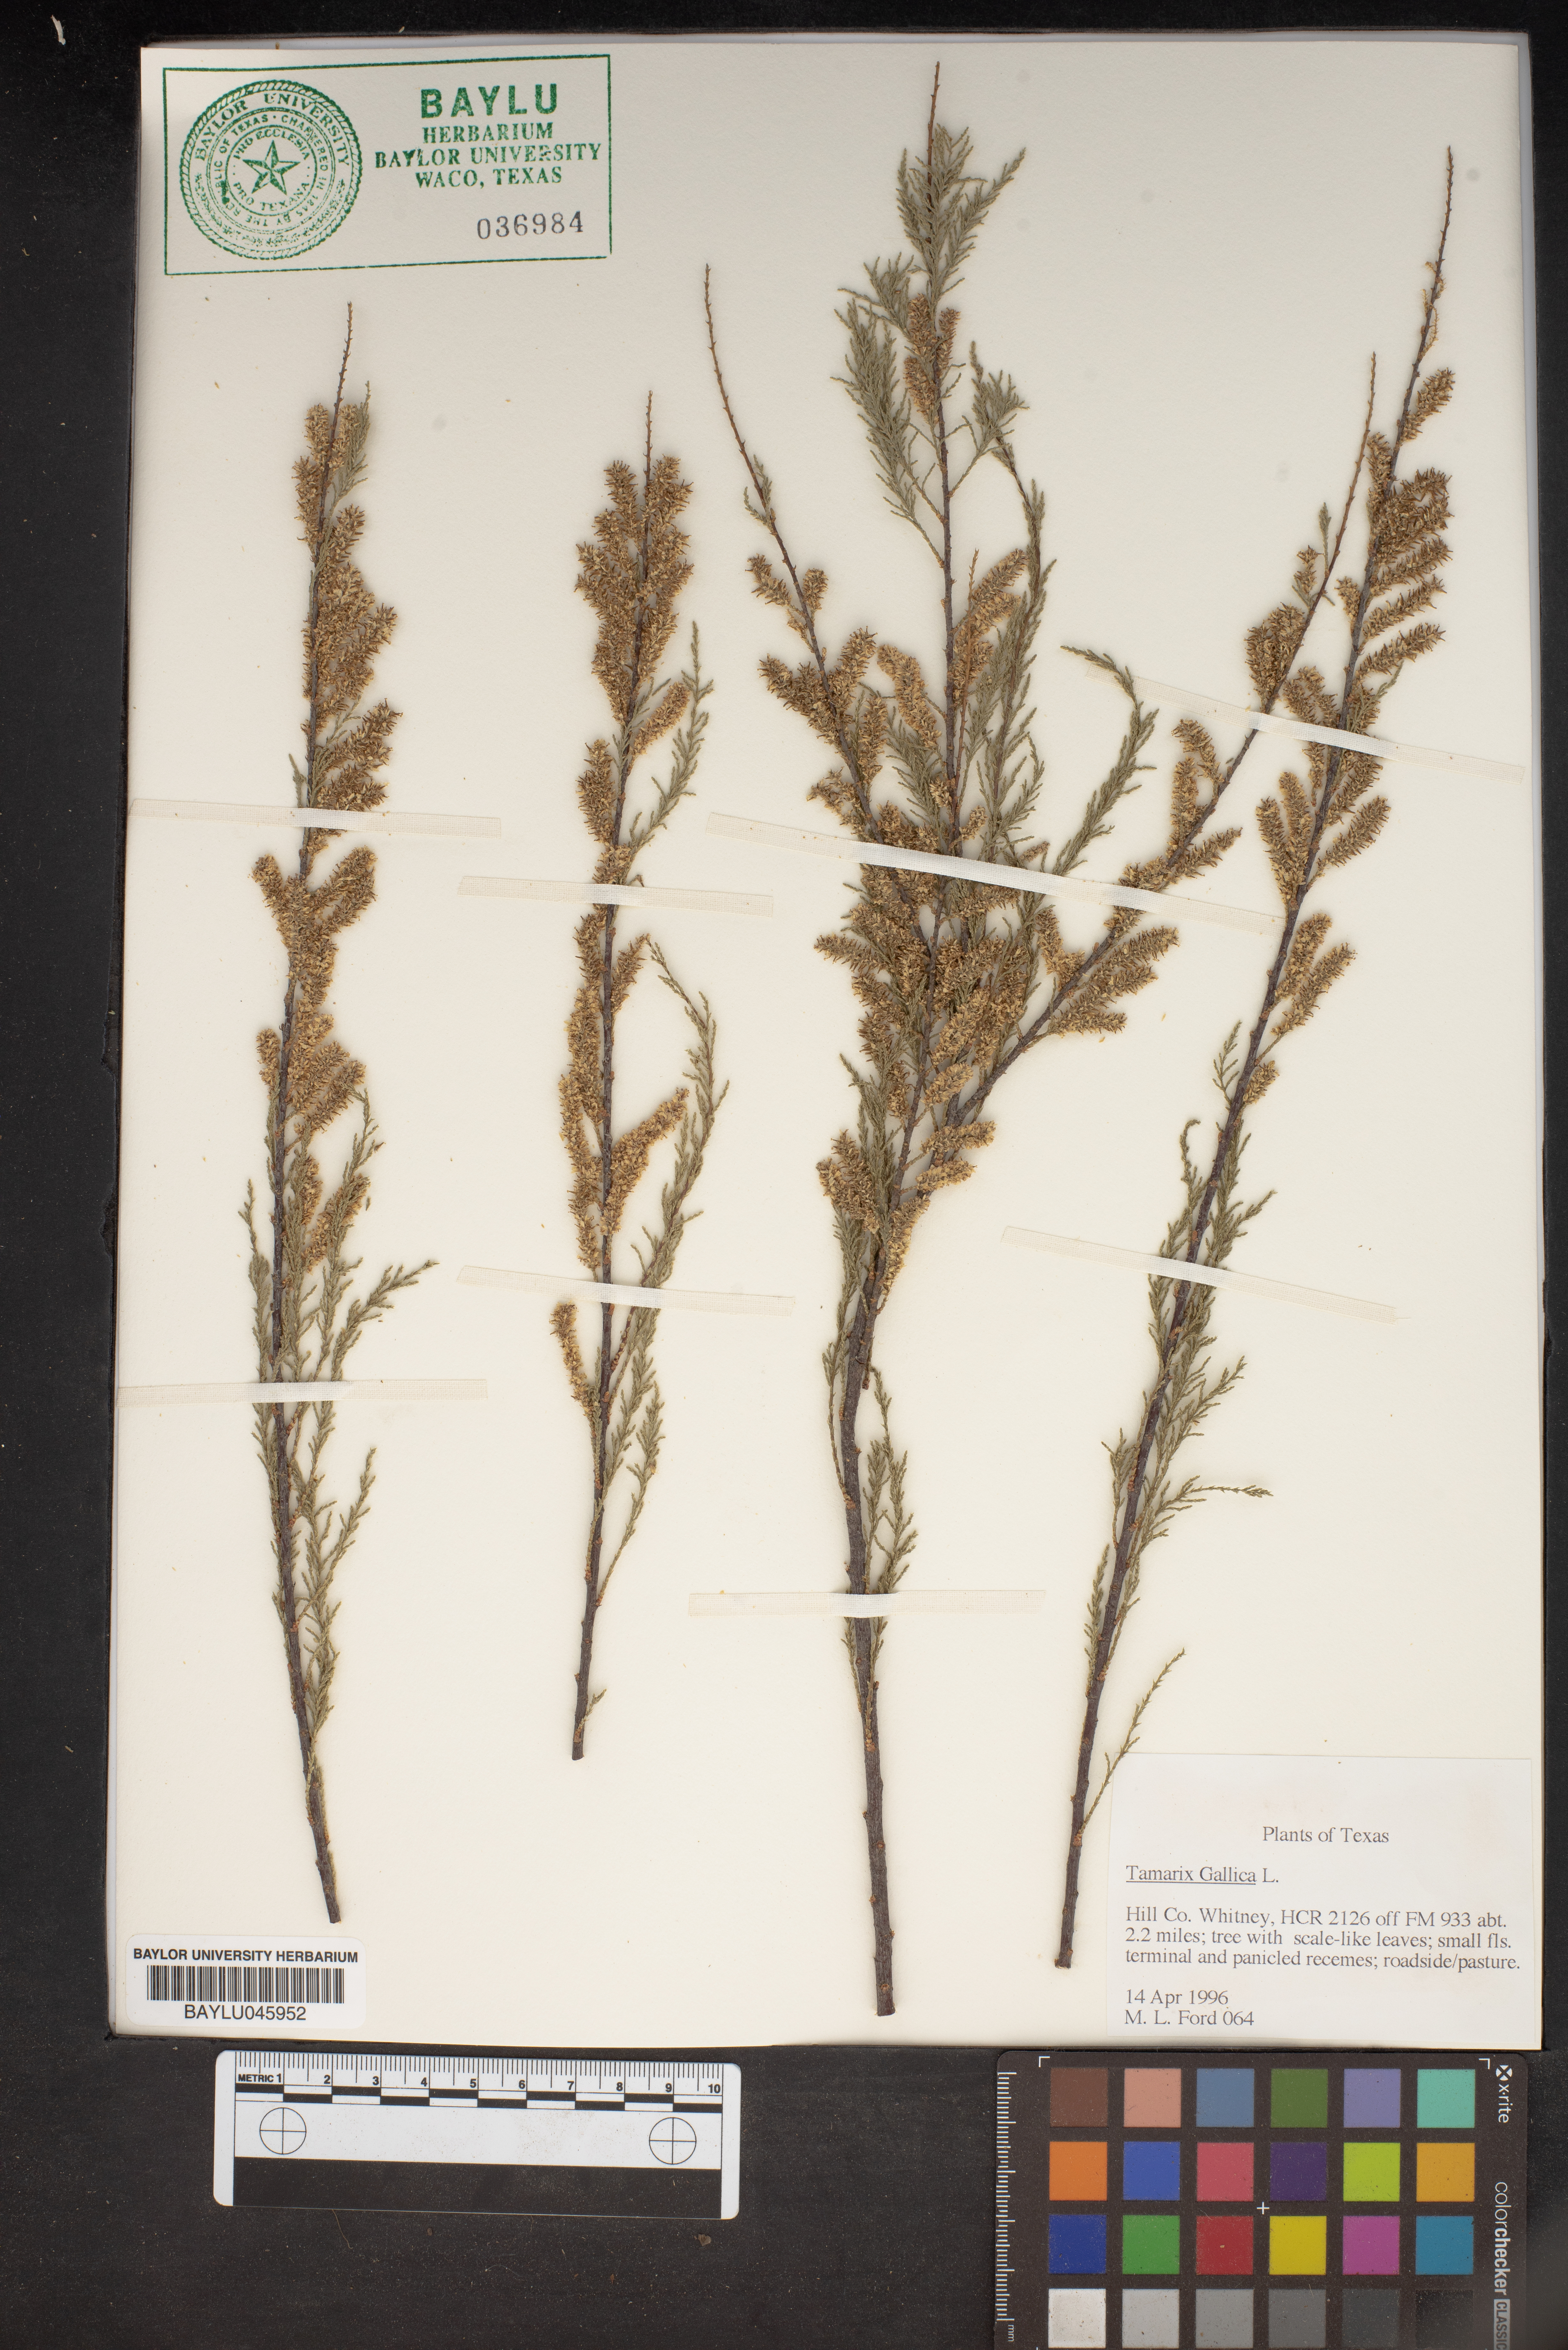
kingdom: Plantae
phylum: Tracheophyta
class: Magnoliopsida
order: Caryophyllales
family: Tamaricaceae
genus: Tamarix
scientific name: Tamarix gallica
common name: Tamarisk
